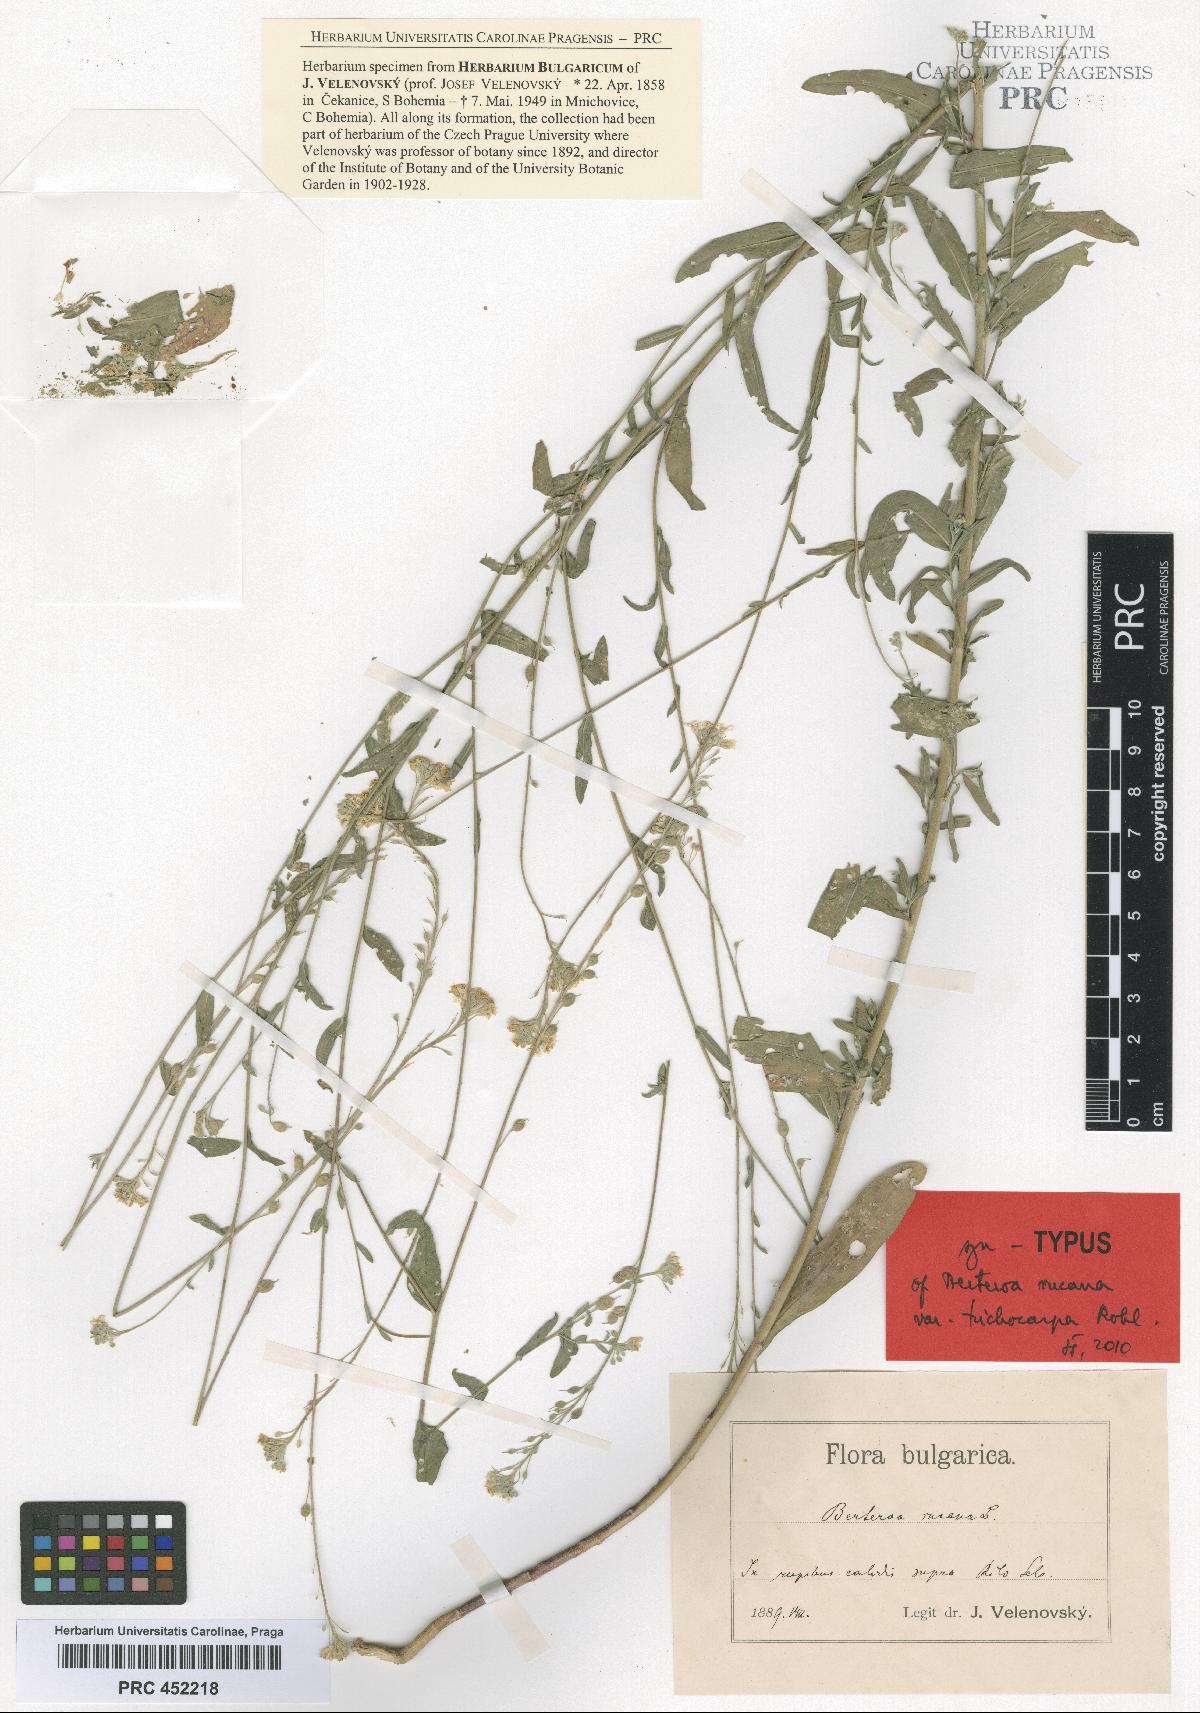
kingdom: Plantae
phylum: Tracheophyta
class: Magnoliopsida
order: Brassicales
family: Brassicaceae
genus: Berteroa
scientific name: Berteroa incana
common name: Hoary alison
